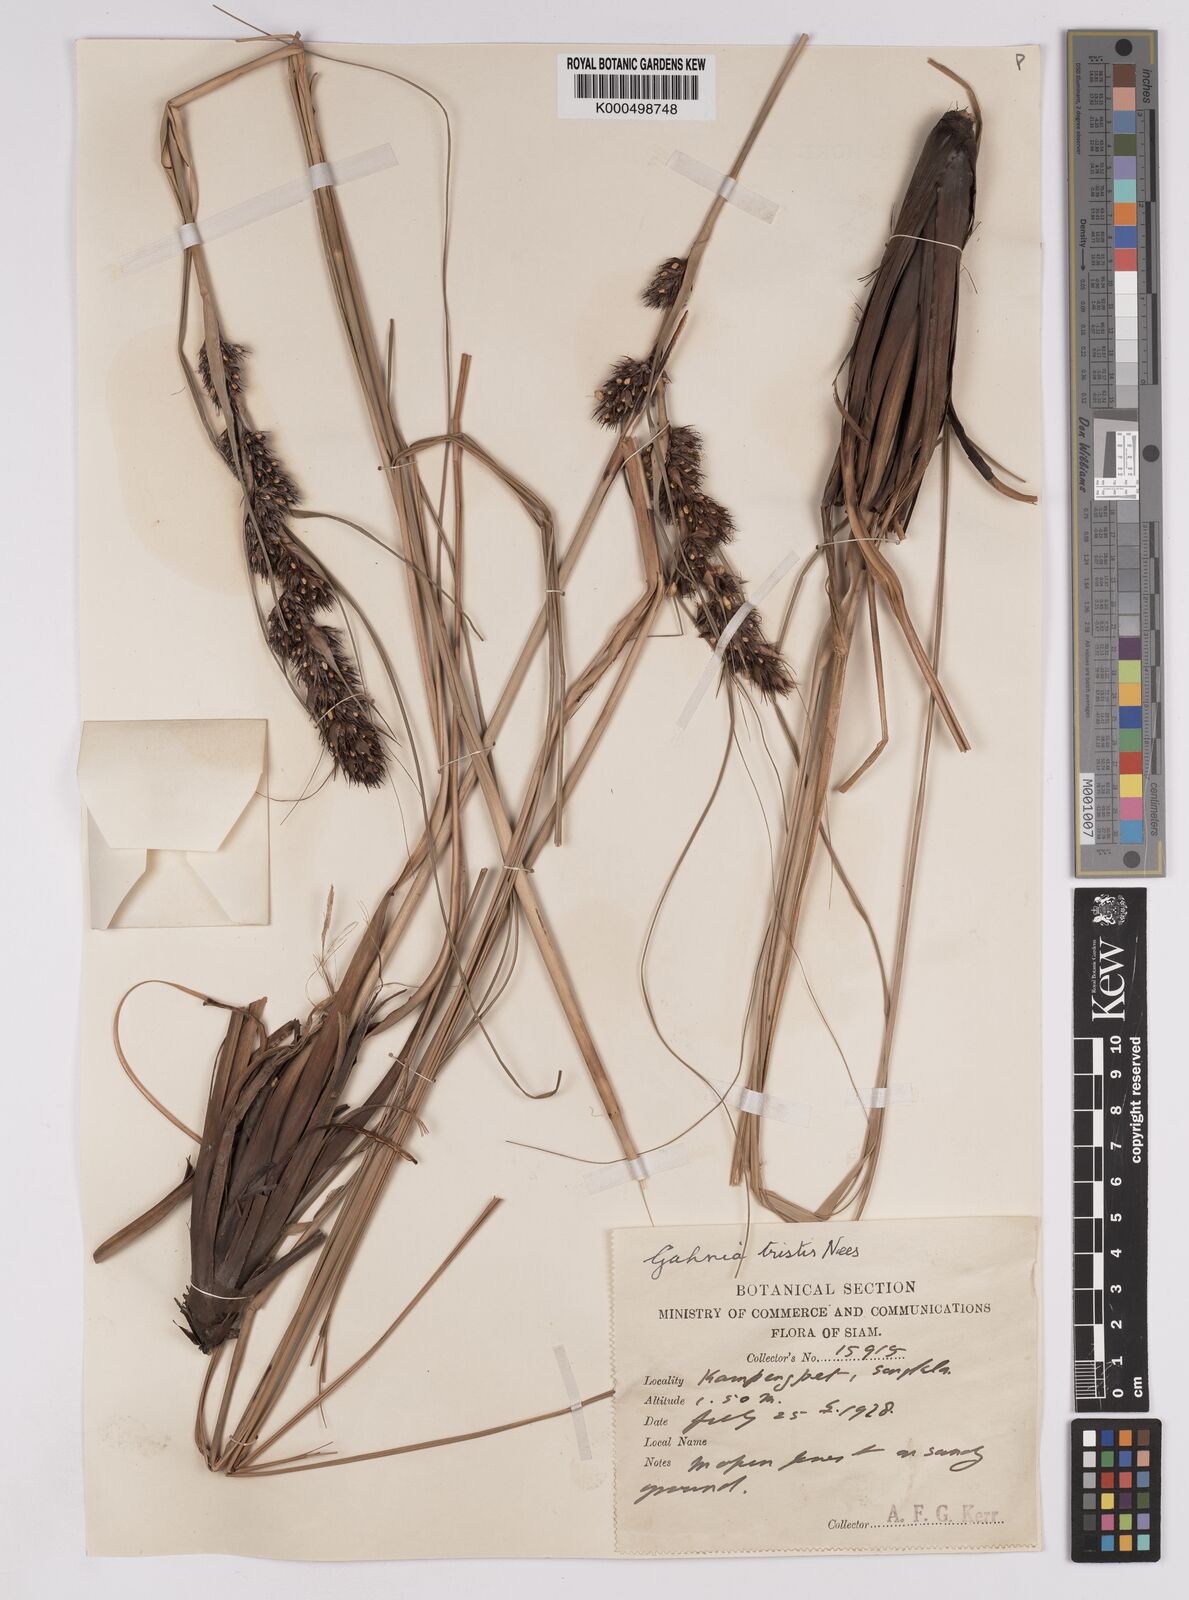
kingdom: Plantae
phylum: Tracheophyta
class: Liliopsida
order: Poales
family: Cyperaceae
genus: Gahnia
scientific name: Gahnia tristis
